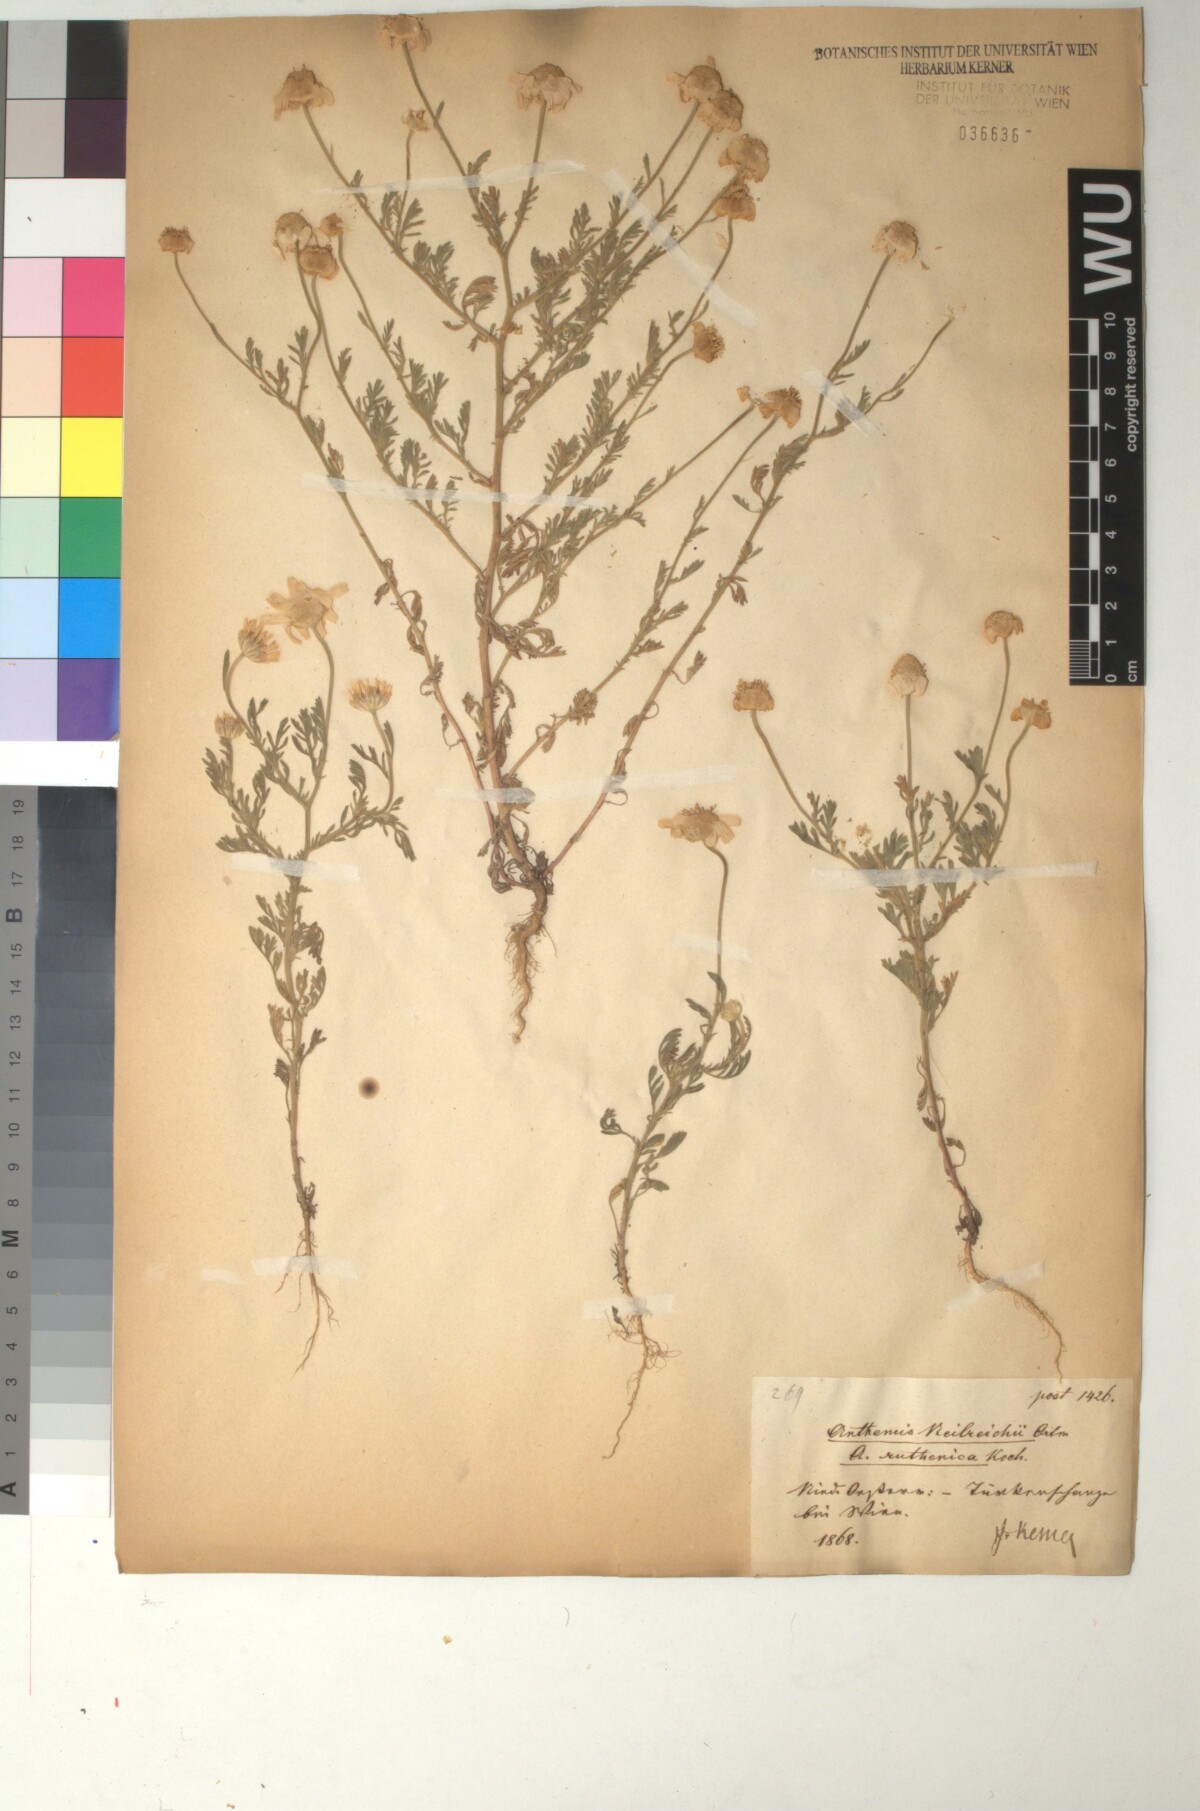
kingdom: Plantae
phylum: Tracheophyta
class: Magnoliopsida
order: Asterales
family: Asteraceae
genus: Anthemis
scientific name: Anthemis ruthenica
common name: Eastern chamomile
